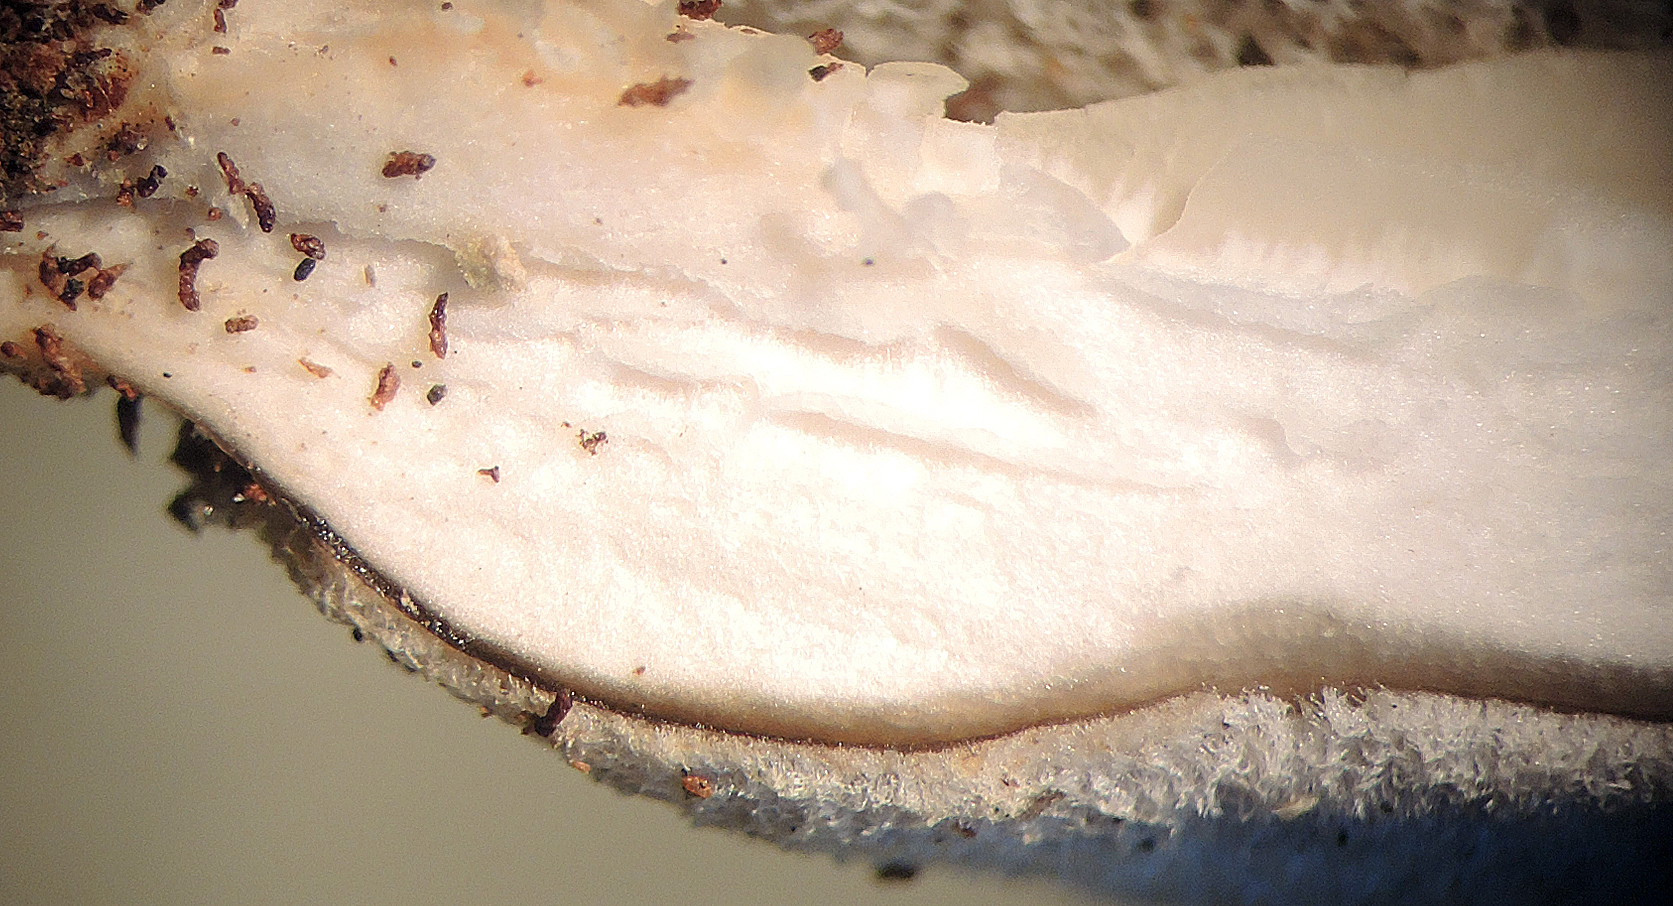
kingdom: Fungi
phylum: Basidiomycota
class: Agaricomycetes
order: Agaricales
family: Pleurotaceae
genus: Hohenbuehelia
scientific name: Hohenbuehelia mastrucata
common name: skællet filthat
